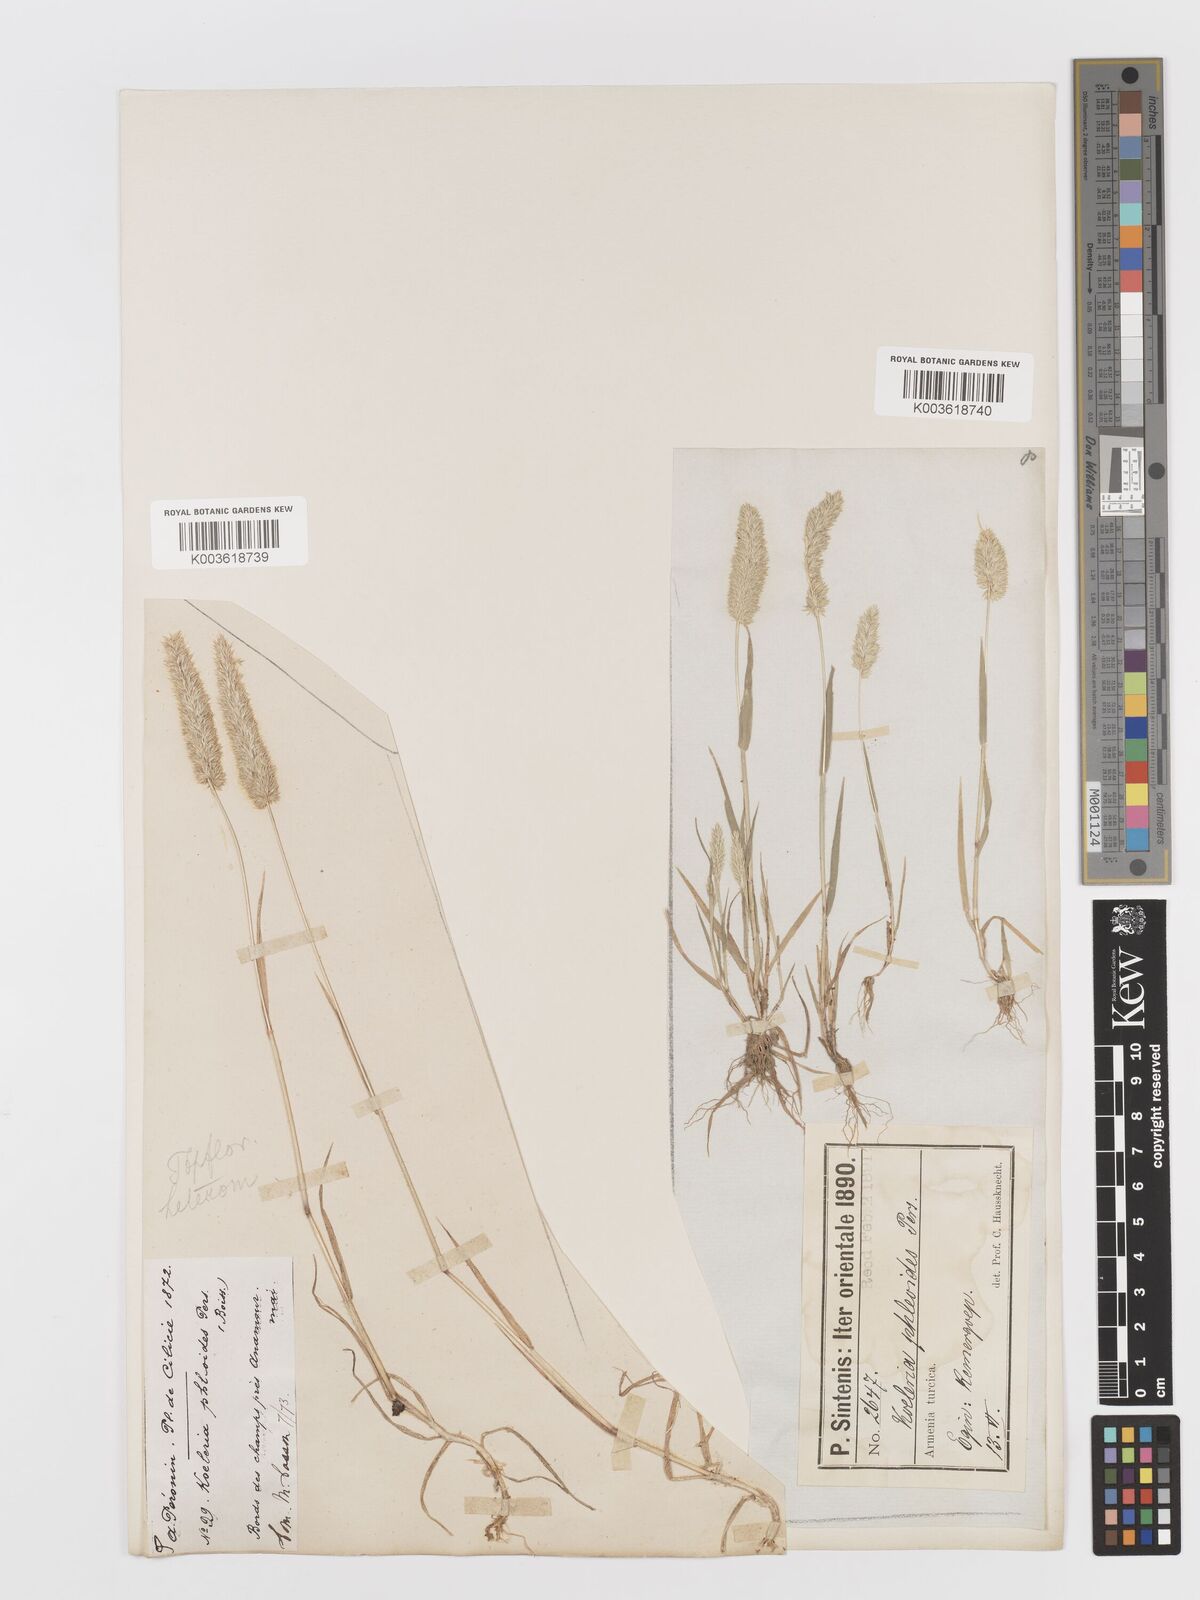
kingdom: Plantae
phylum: Tracheophyta
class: Liliopsida
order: Poales
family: Poaceae
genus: Rostraria
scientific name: Rostraria cristata
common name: Mediterranean hair-grass
